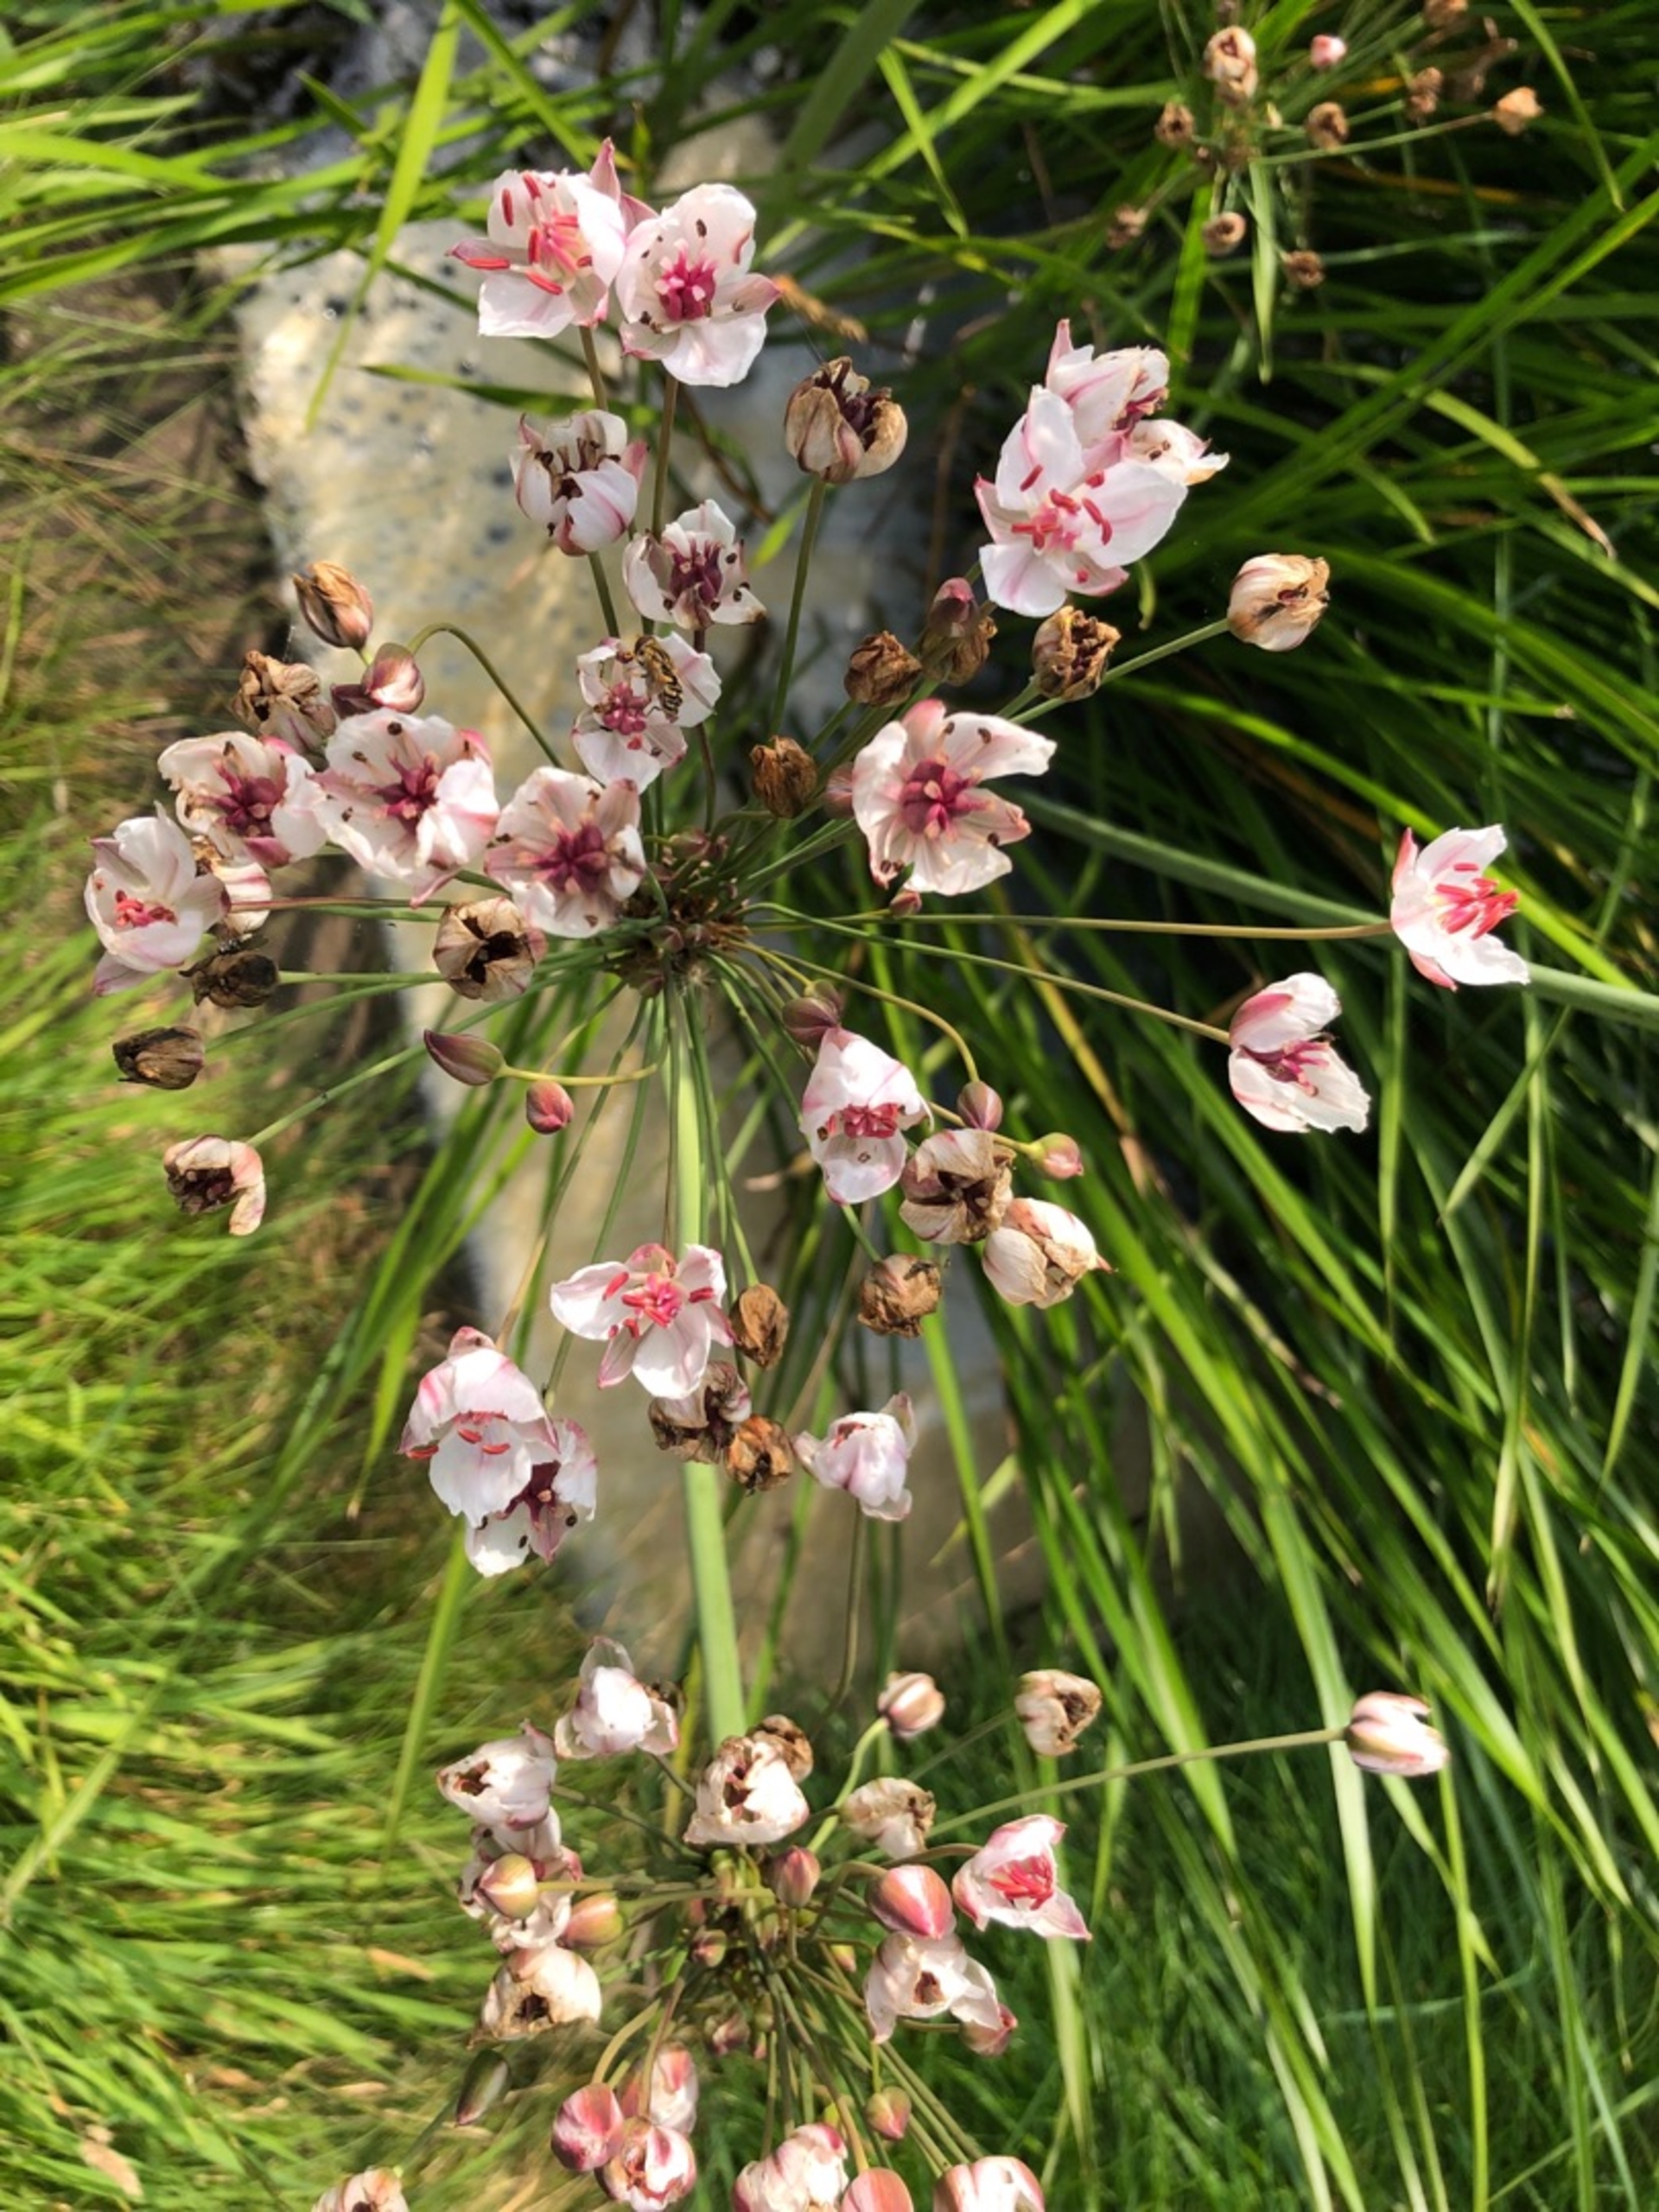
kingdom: Plantae
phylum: Tracheophyta
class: Liliopsida
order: Alismatales
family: Butomaceae
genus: Butomus
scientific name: Butomus umbellatus
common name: Brudelys
